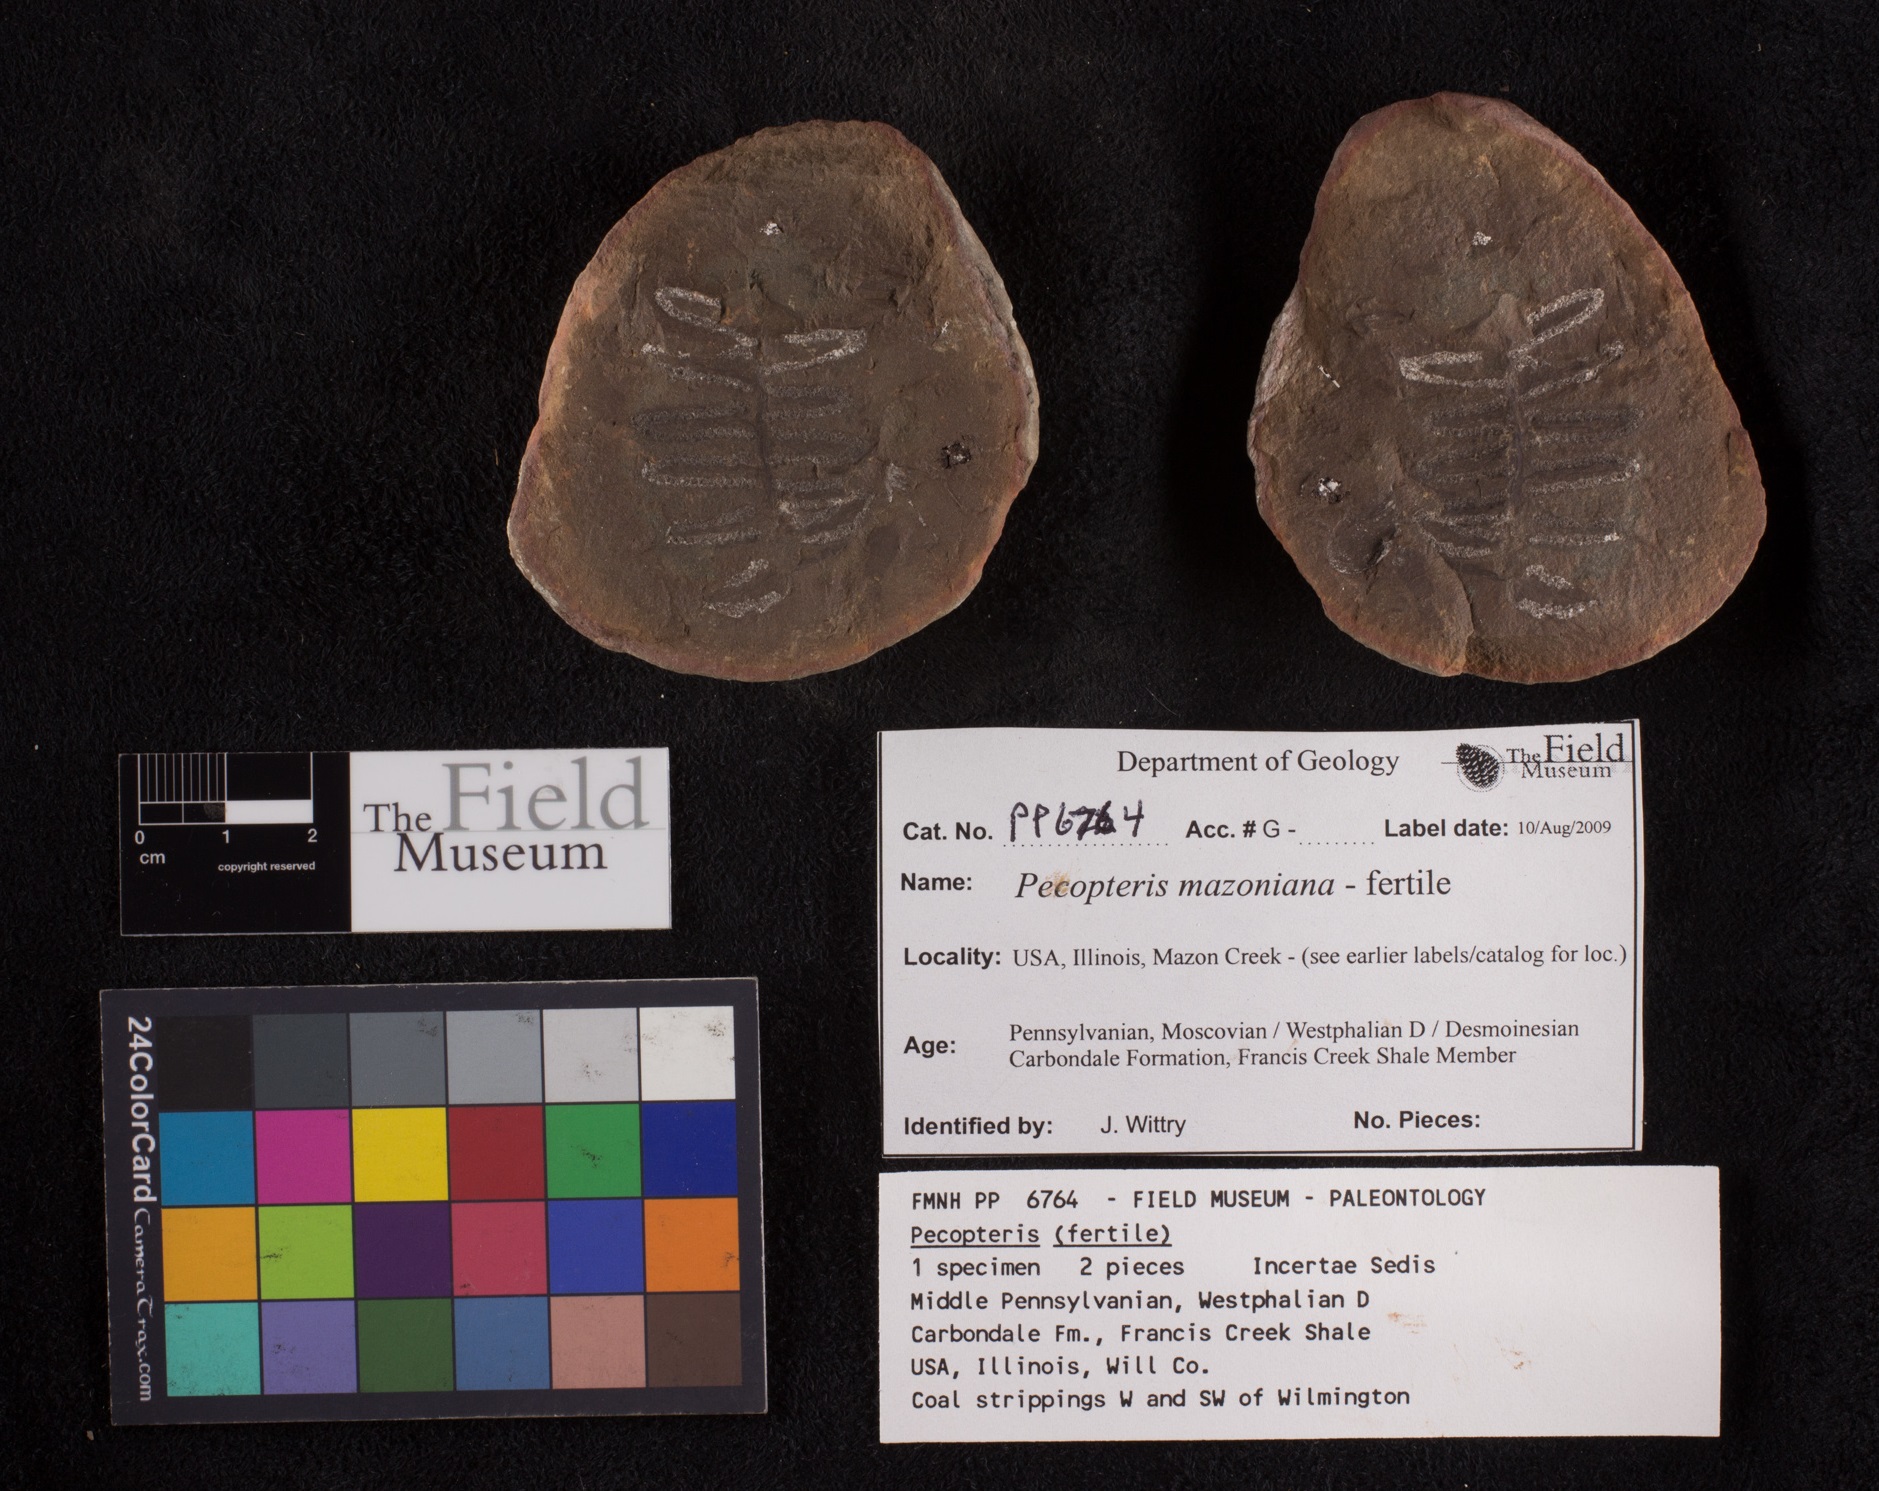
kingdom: Plantae
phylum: Tracheophyta
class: Polypodiopsida
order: Marattiales
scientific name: Marattiales
